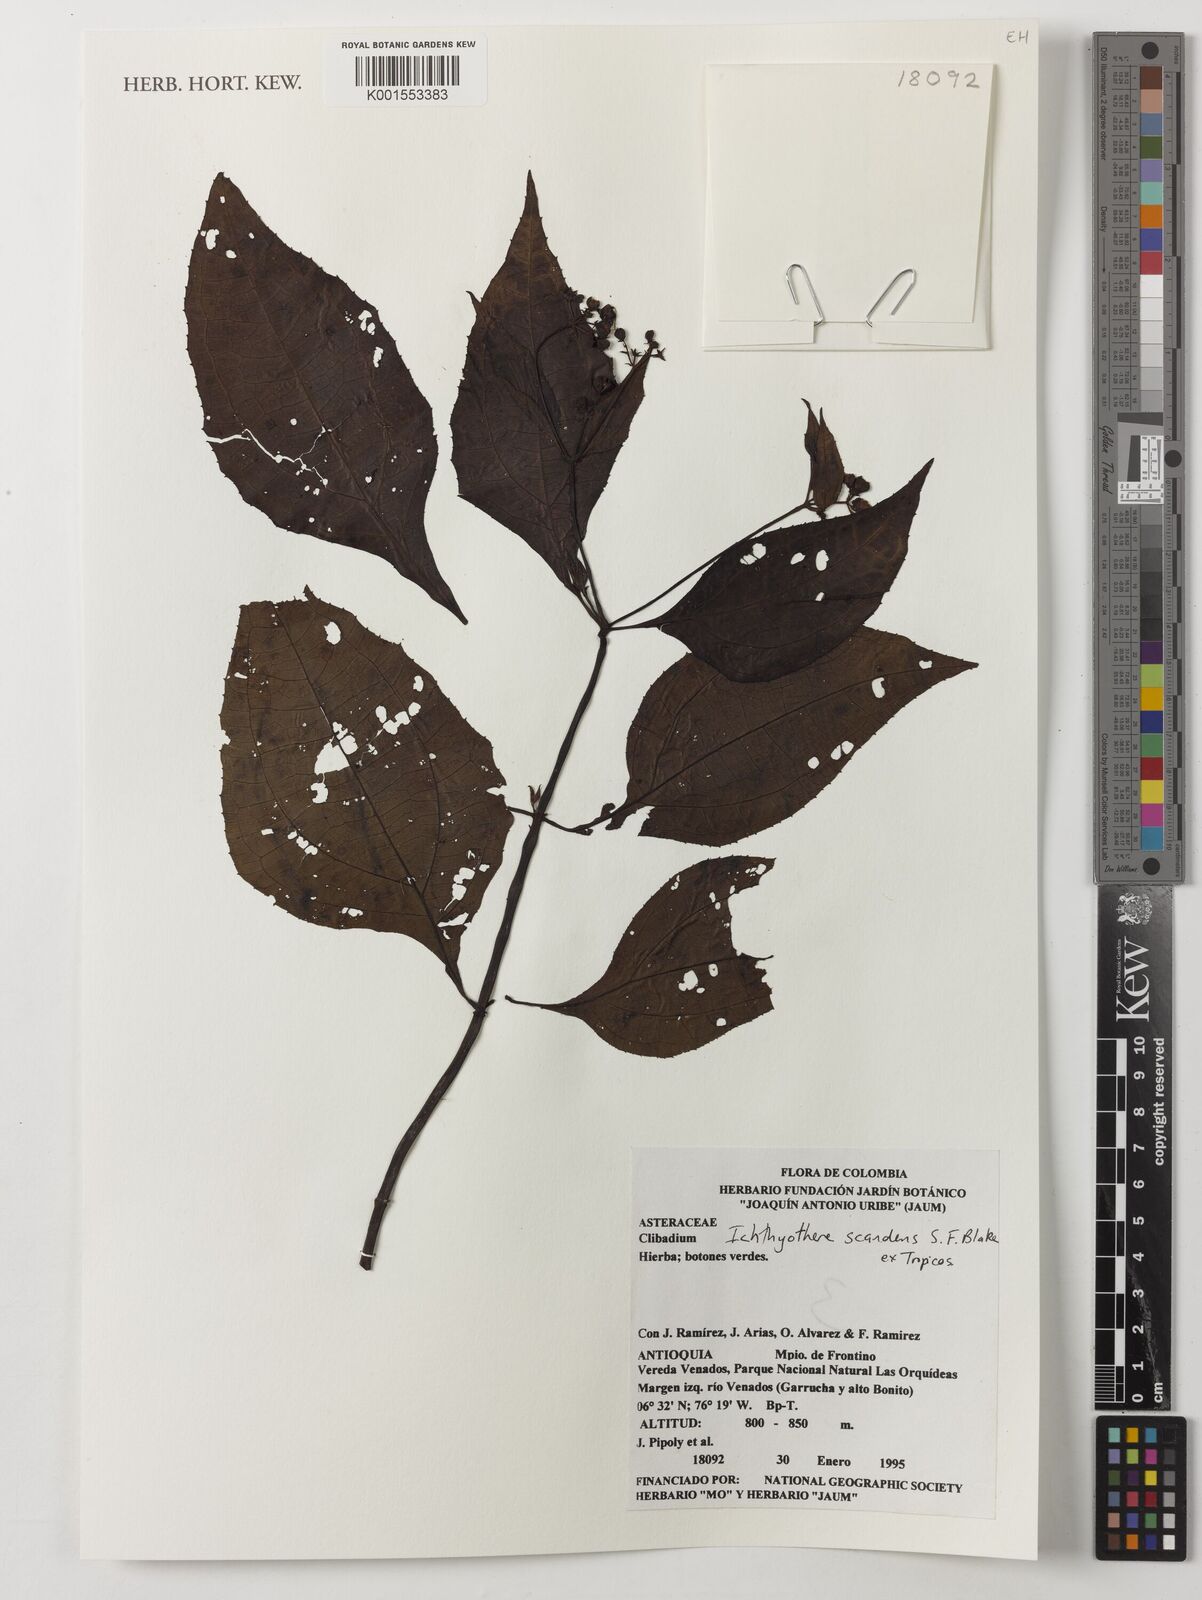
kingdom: Plantae
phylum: Tracheophyta
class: Magnoliopsida
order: Asterales
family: Asteraceae
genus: Ichthyothere
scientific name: Ichthyothere scandens
